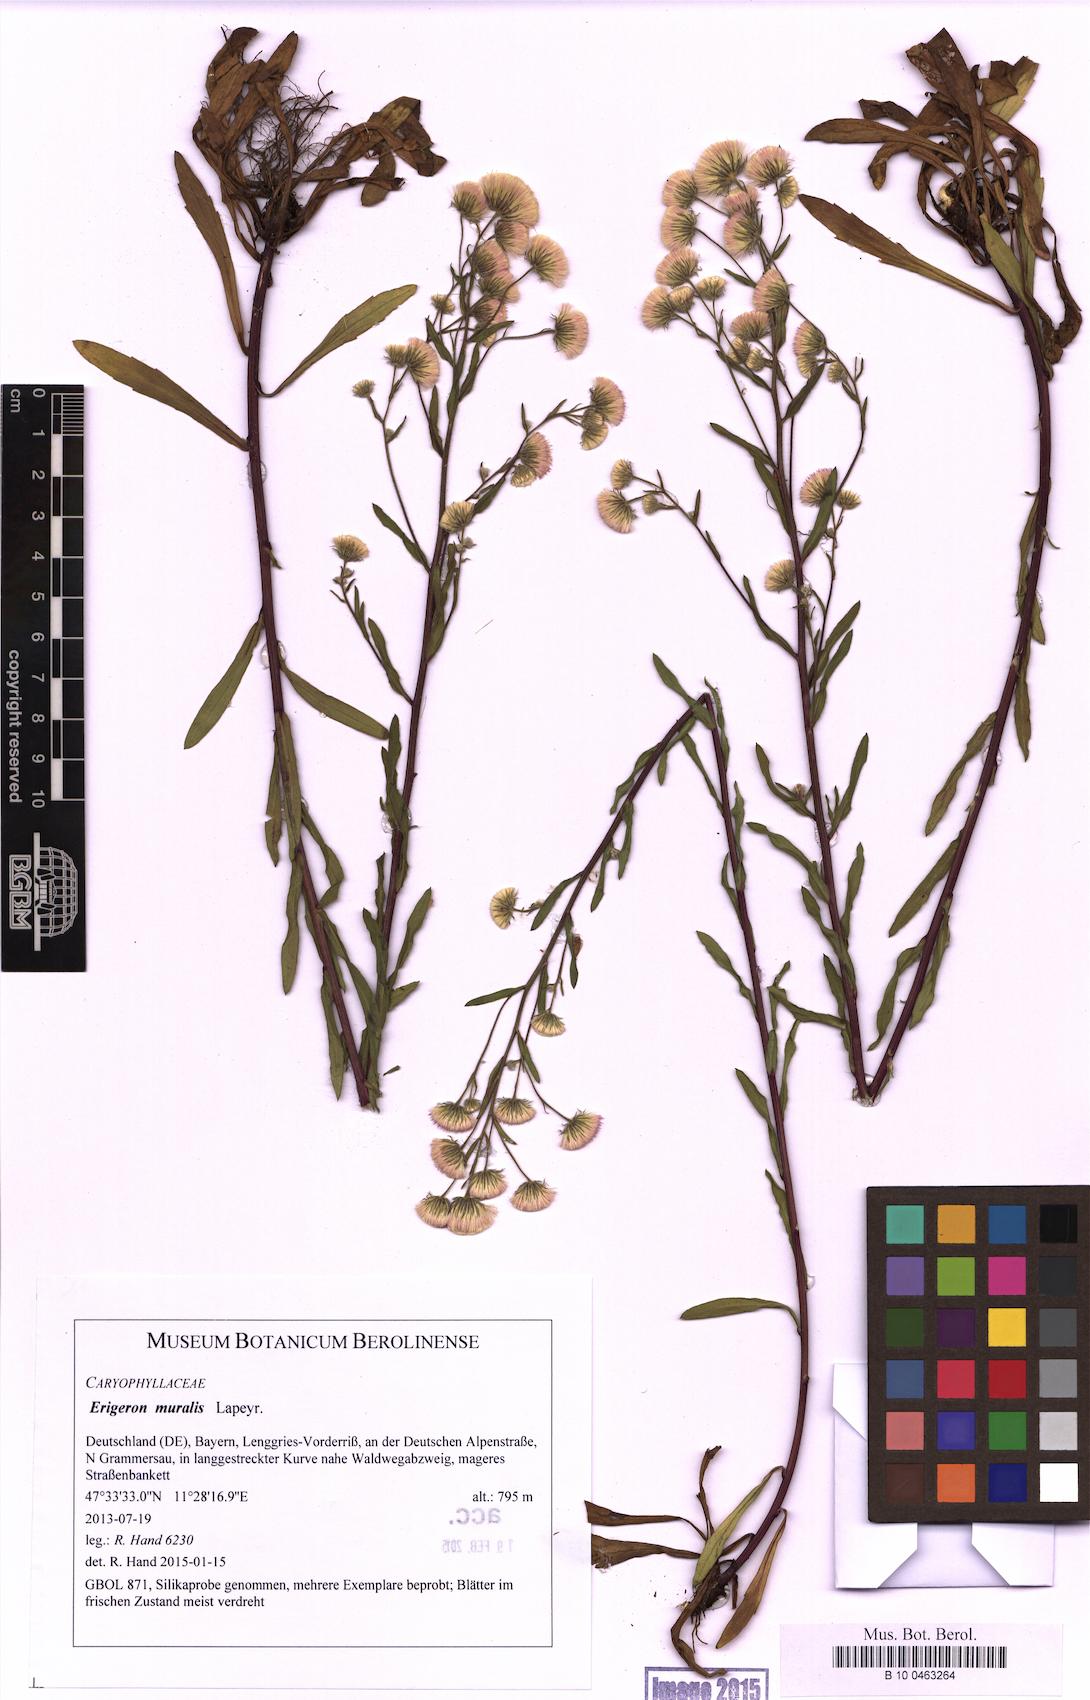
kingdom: Plantae
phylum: Tracheophyta
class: Magnoliopsida
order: Asterales
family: Asteraceae
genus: Erigeron
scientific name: Erigeron muralis
